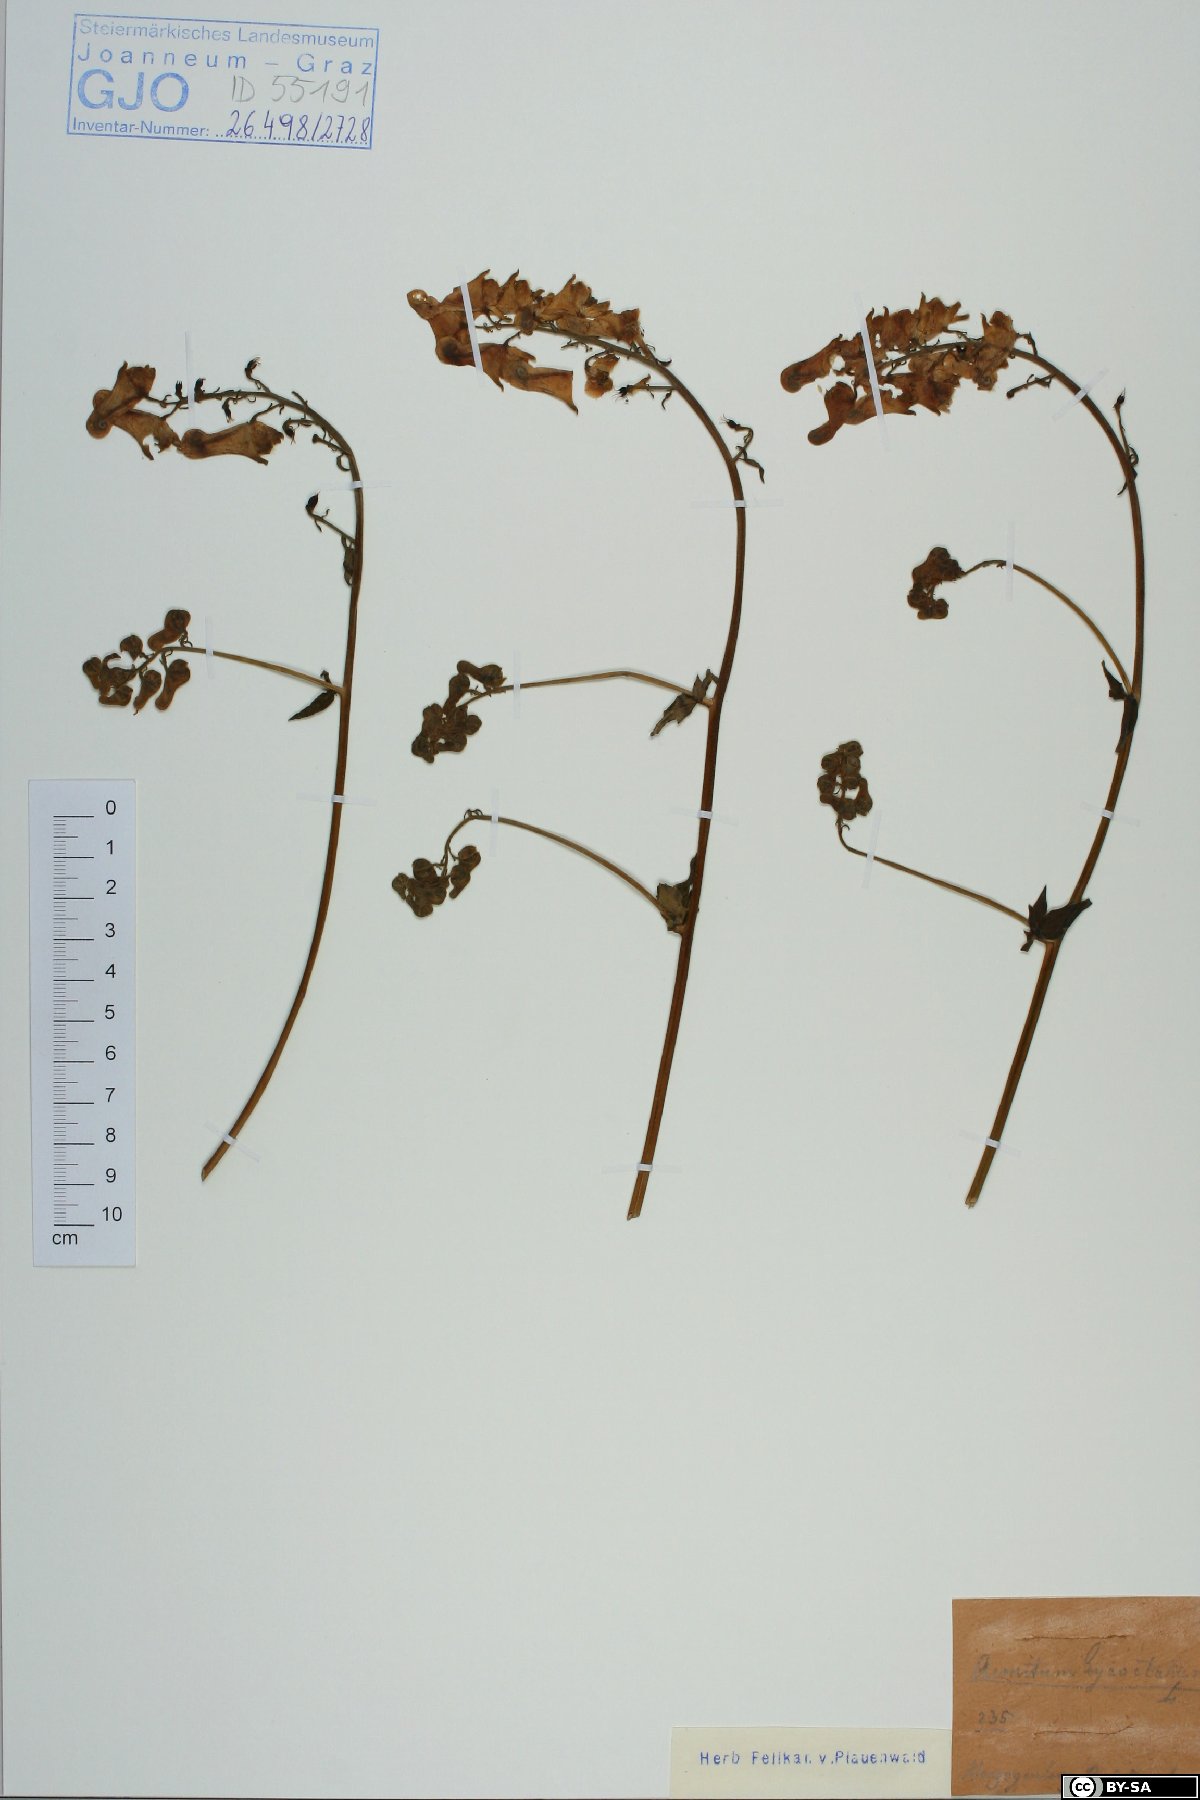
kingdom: Plantae
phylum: Tracheophyta
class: Magnoliopsida
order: Ranunculales
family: Ranunculaceae
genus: Aconitum
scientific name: Aconitum lycoctonum
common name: Wolf's-bane
